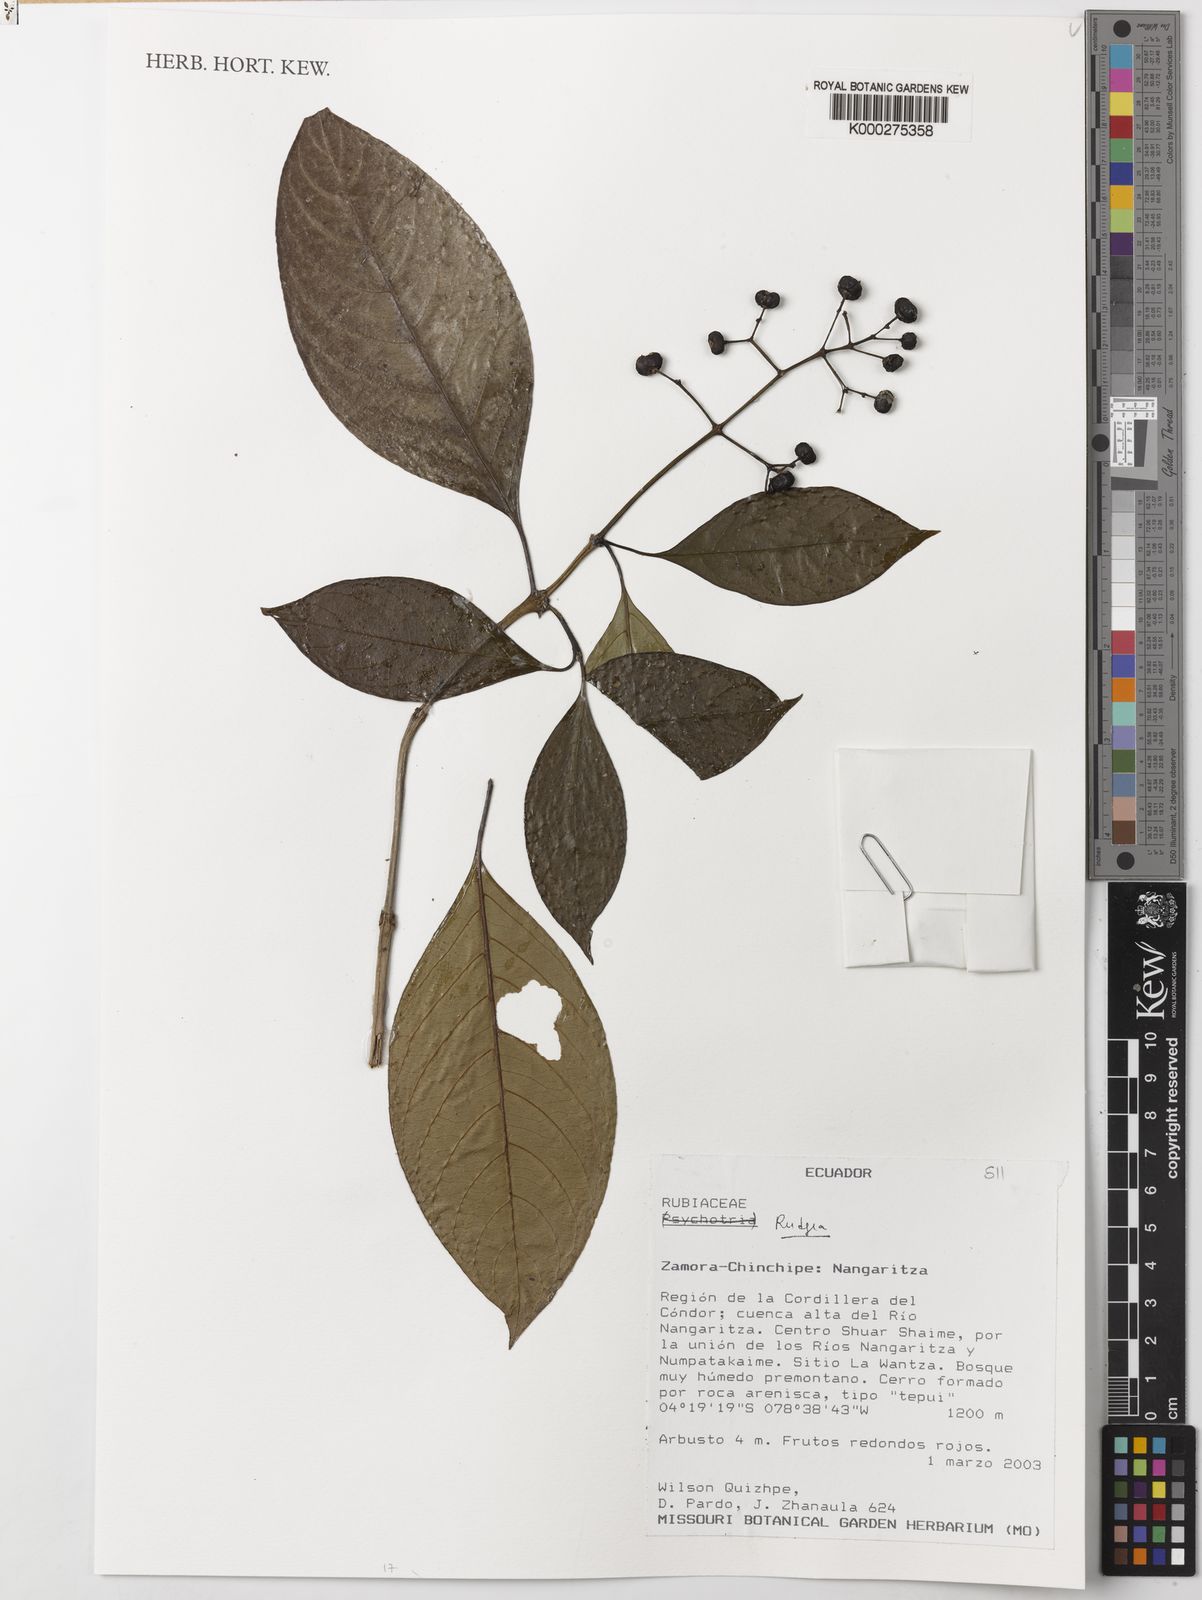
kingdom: Plantae
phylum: Tracheophyta
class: Magnoliopsida
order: Gentianales
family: Rubiaceae
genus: Rudgea
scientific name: Rudgea
